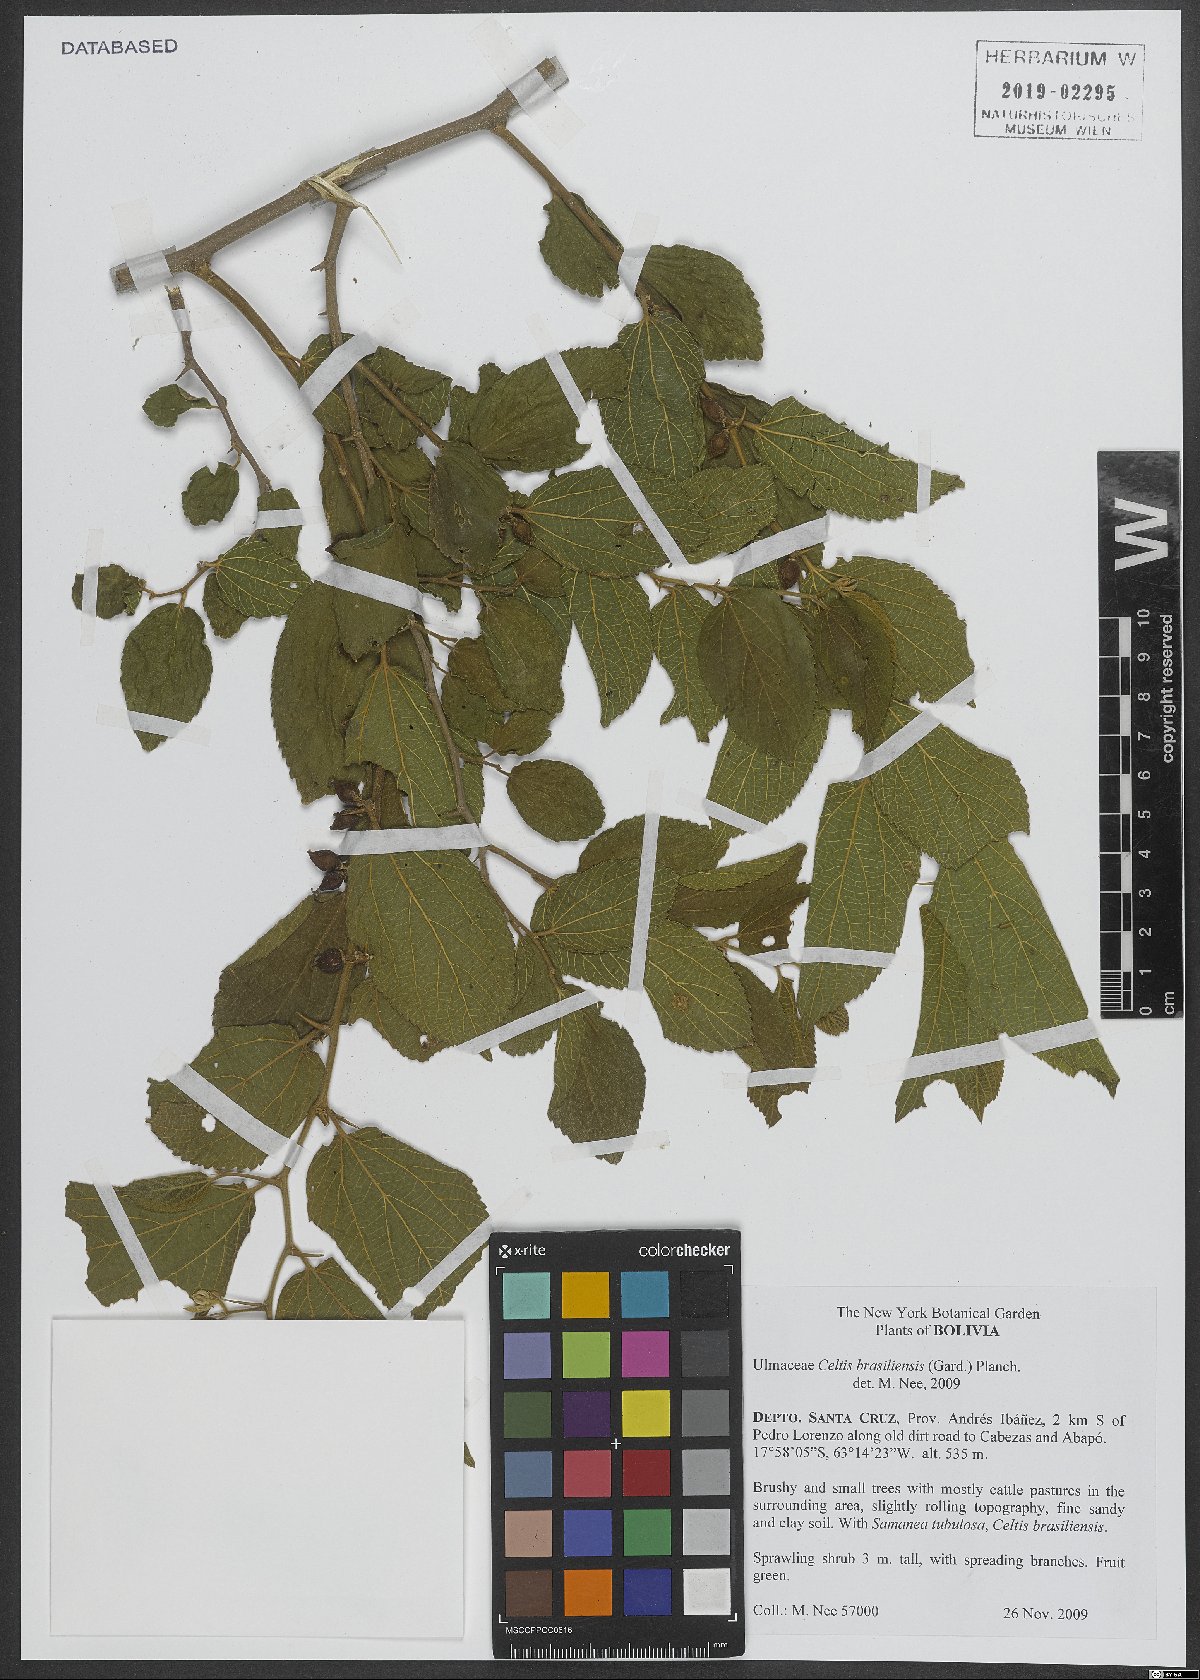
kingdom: Plantae
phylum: Tracheophyta
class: Magnoliopsida
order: Rosales
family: Cannabaceae
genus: Celtis
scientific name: Celtis brasiliensis
